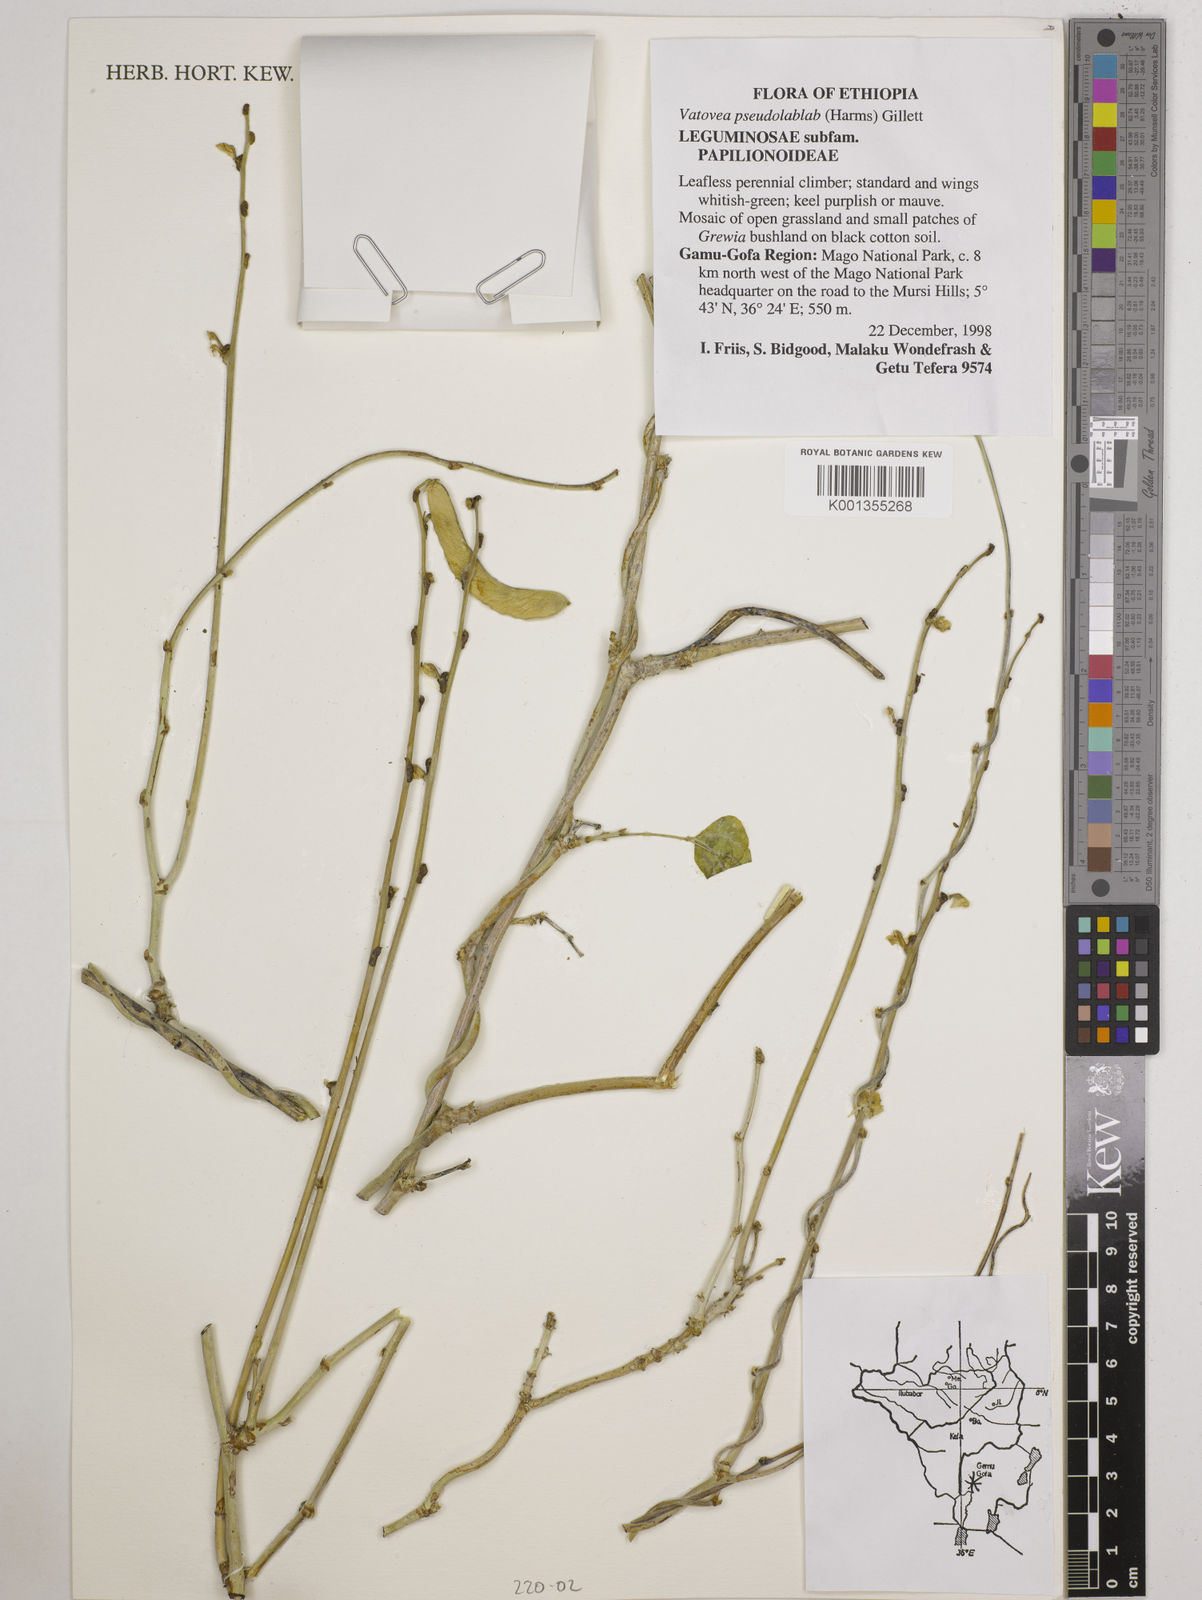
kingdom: Plantae
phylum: Tracheophyta
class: Magnoliopsida
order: Fabales
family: Fabaceae
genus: Vatovaea
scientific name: Vatovaea pseudolablab
